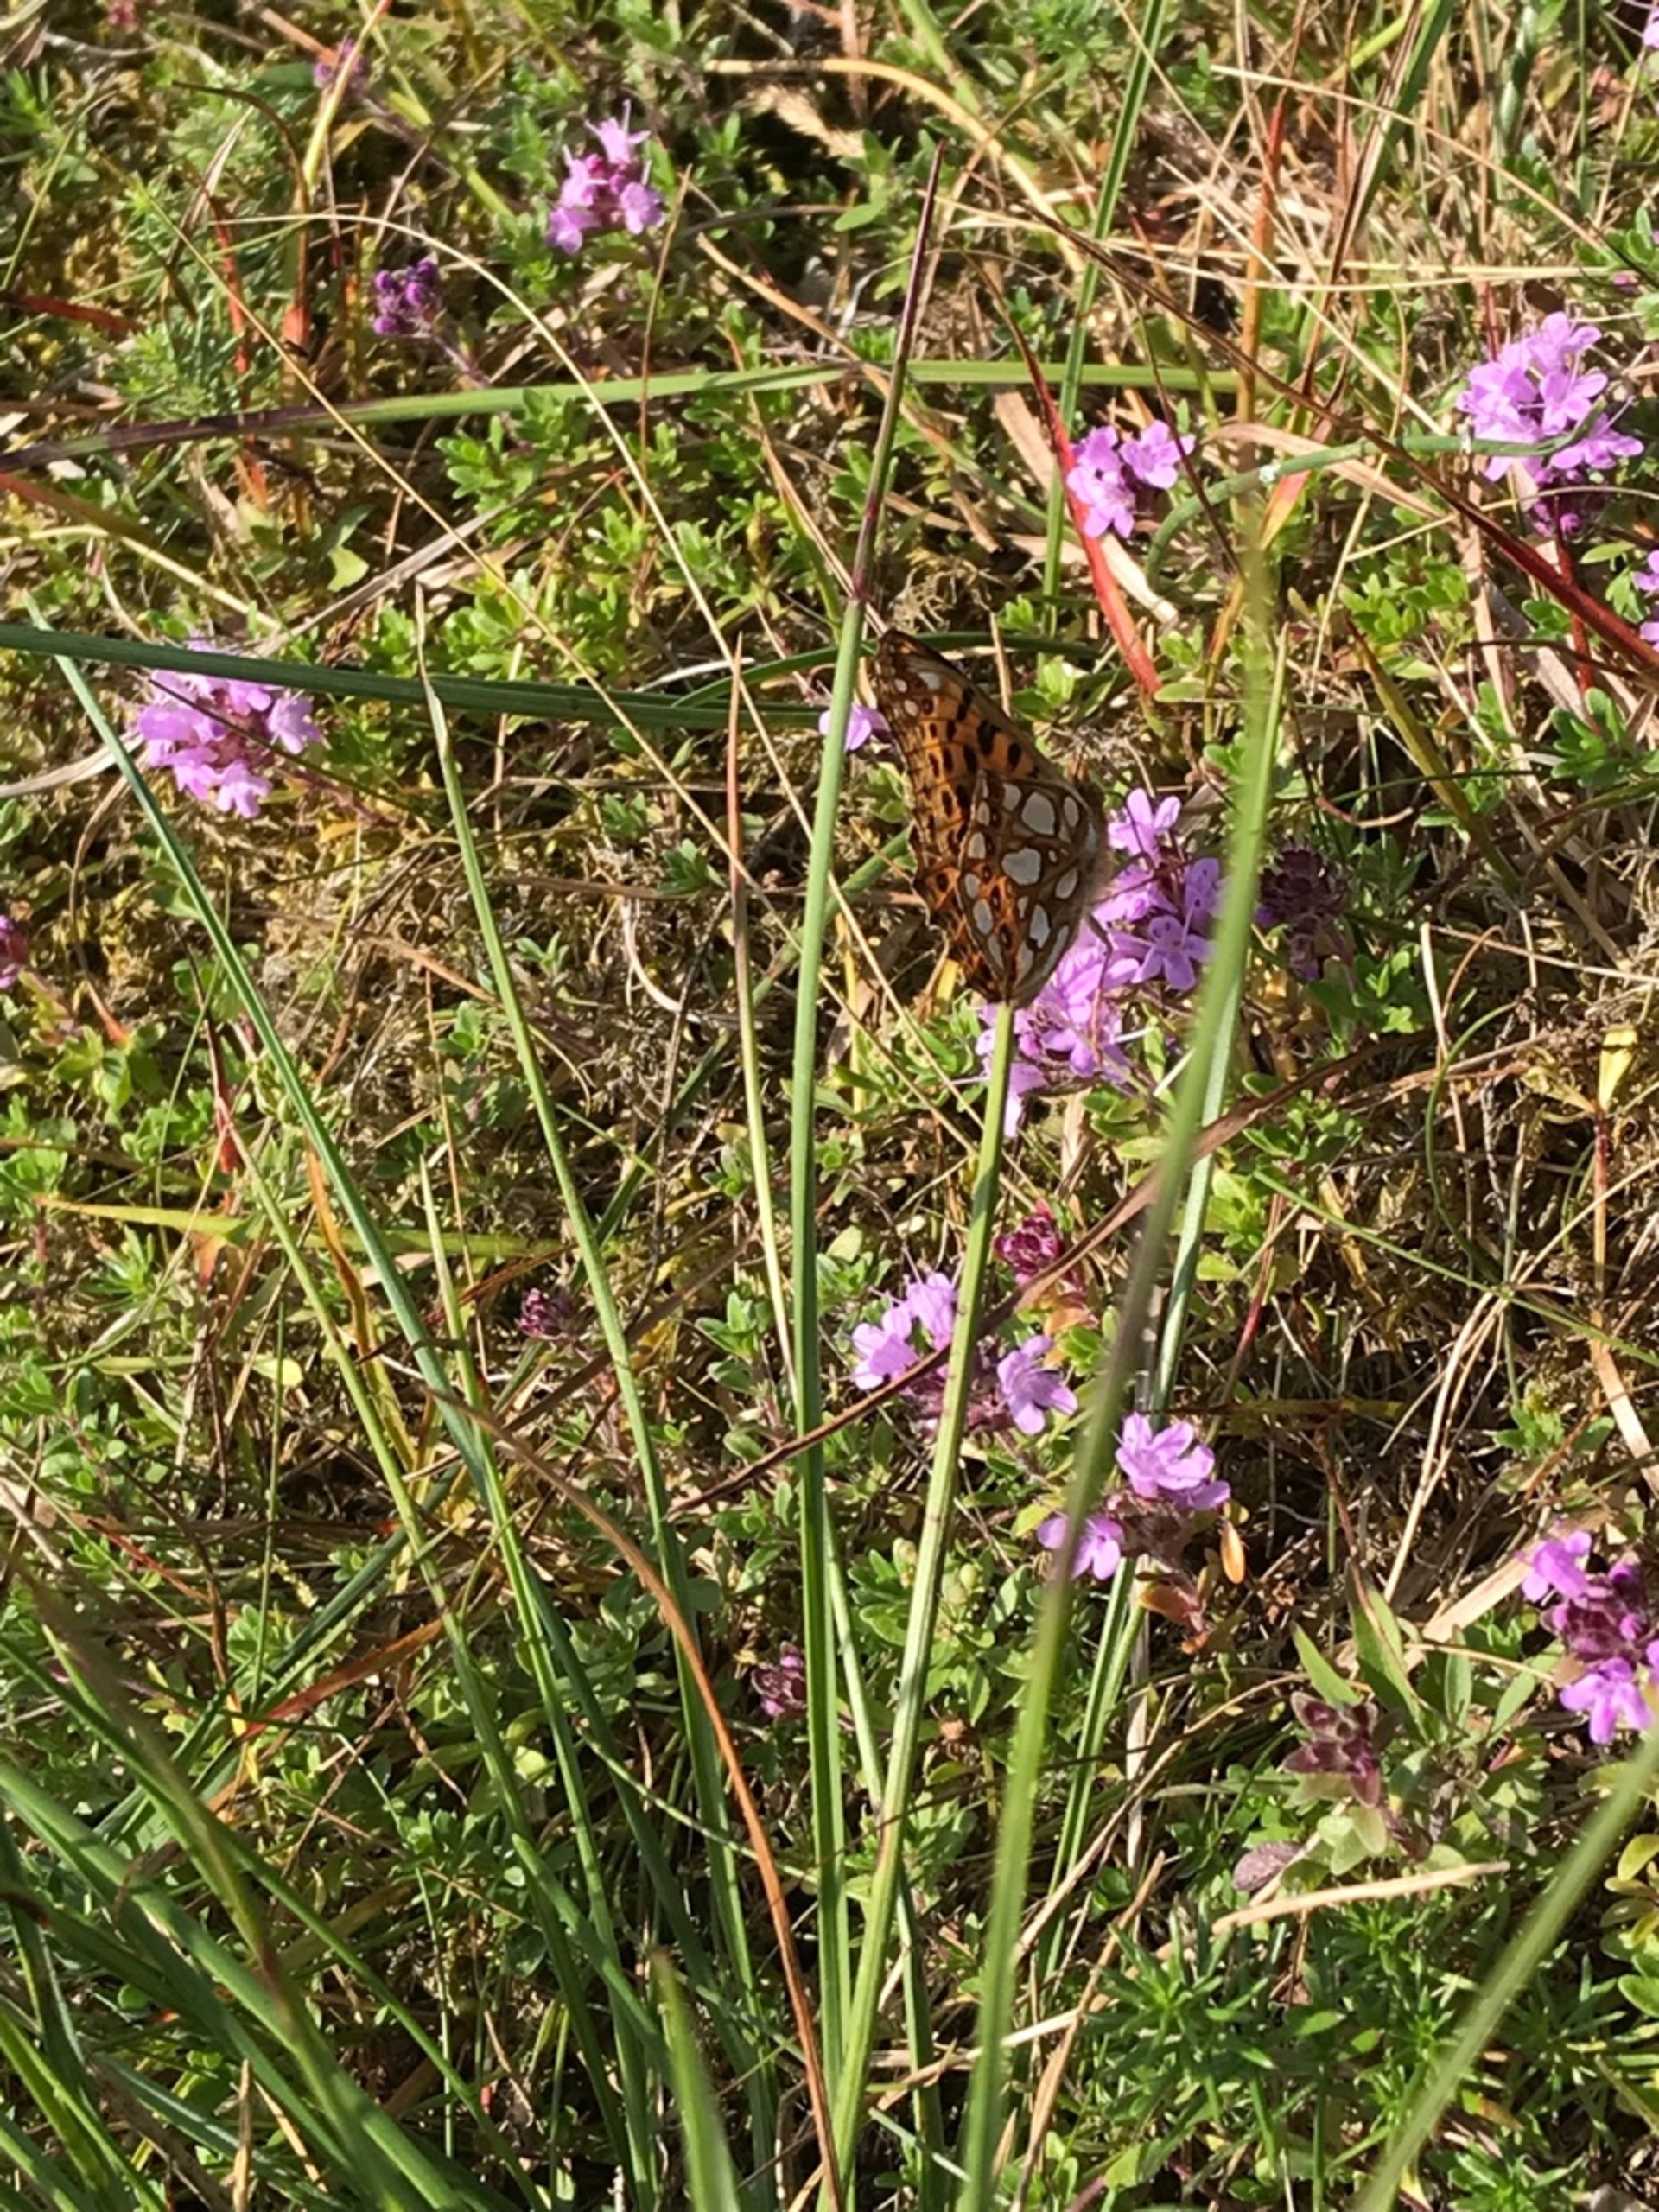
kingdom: Animalia
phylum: Arthropoda
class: Insecta
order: Lepidoptera
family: Nymphalidae
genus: Issoria
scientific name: Issoria lathonia
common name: Storplettet perlemorsommerfugl
